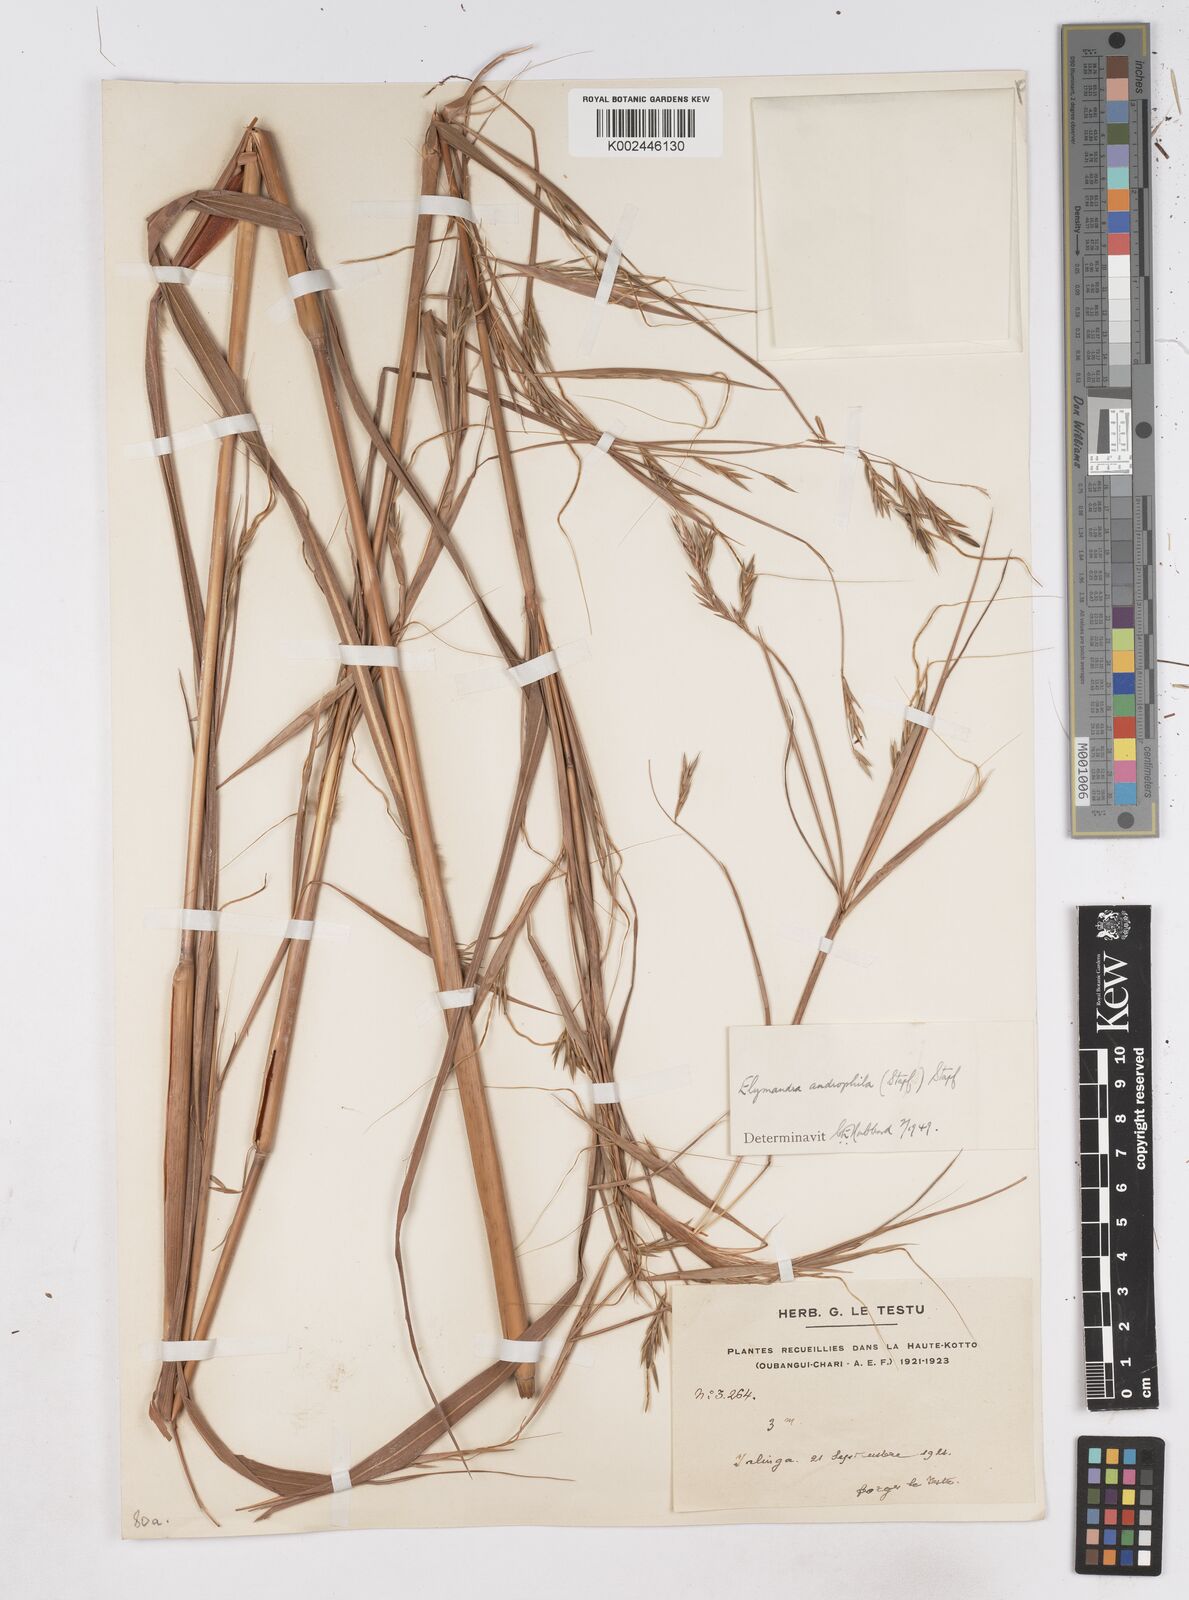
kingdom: Plantae
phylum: Tracheophyta
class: Liliopsida
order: Poales
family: Poaceae
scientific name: Poaceae
